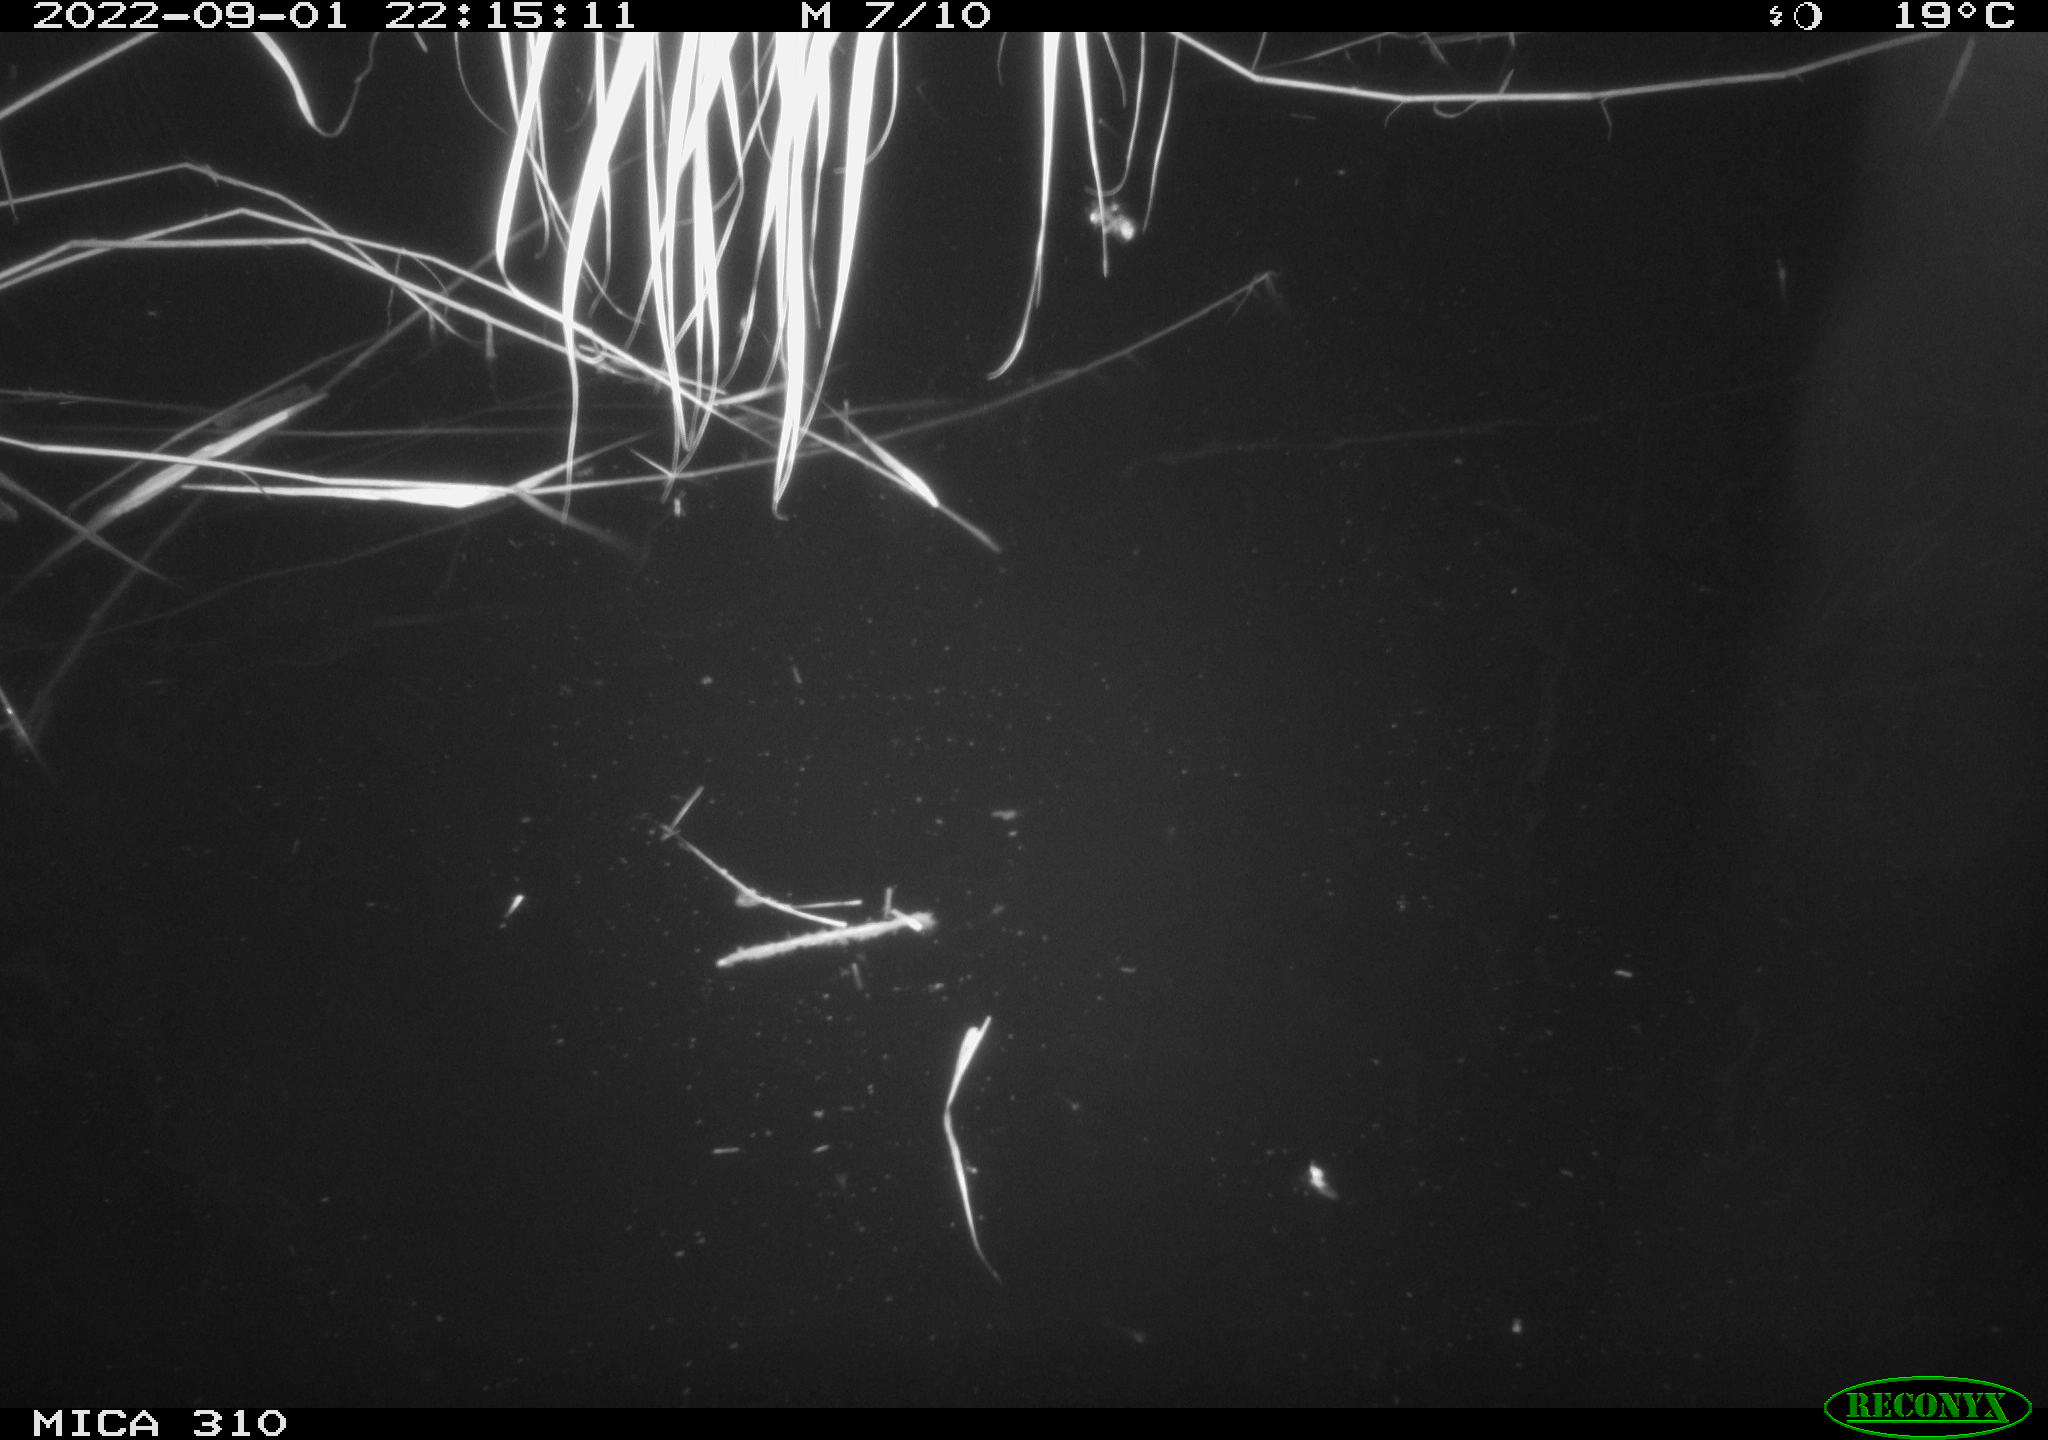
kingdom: Animalia
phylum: Chordata
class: Mammalia
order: Rodentia
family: Cricetidae
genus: Ondatra
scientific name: Ondatra zibethicus
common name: Muskrat
